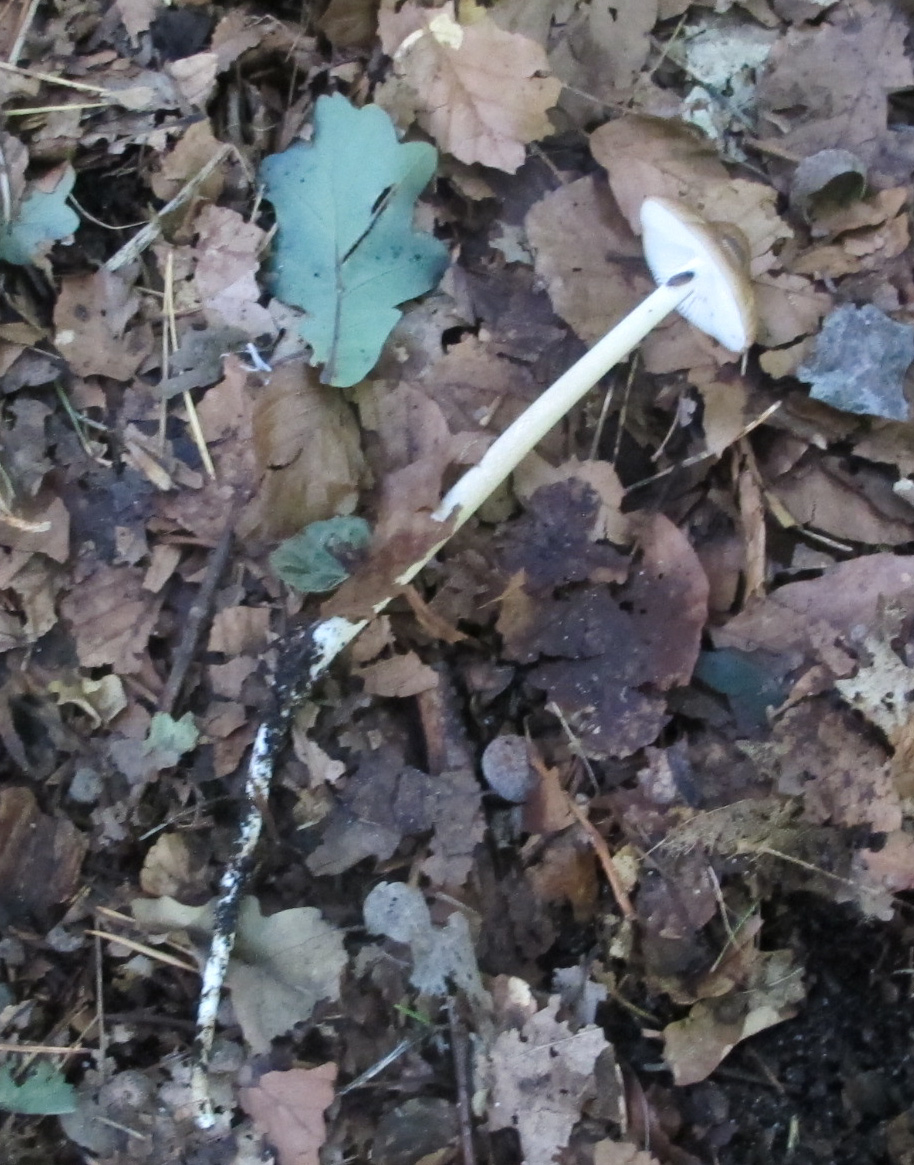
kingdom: Fungi
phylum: Basidiomycota
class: Agaricomycetes
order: Agaricales
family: Physalacriaceae
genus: Hymenopellis
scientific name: Hymenopellis radicata
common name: almindelig pælerodshat
